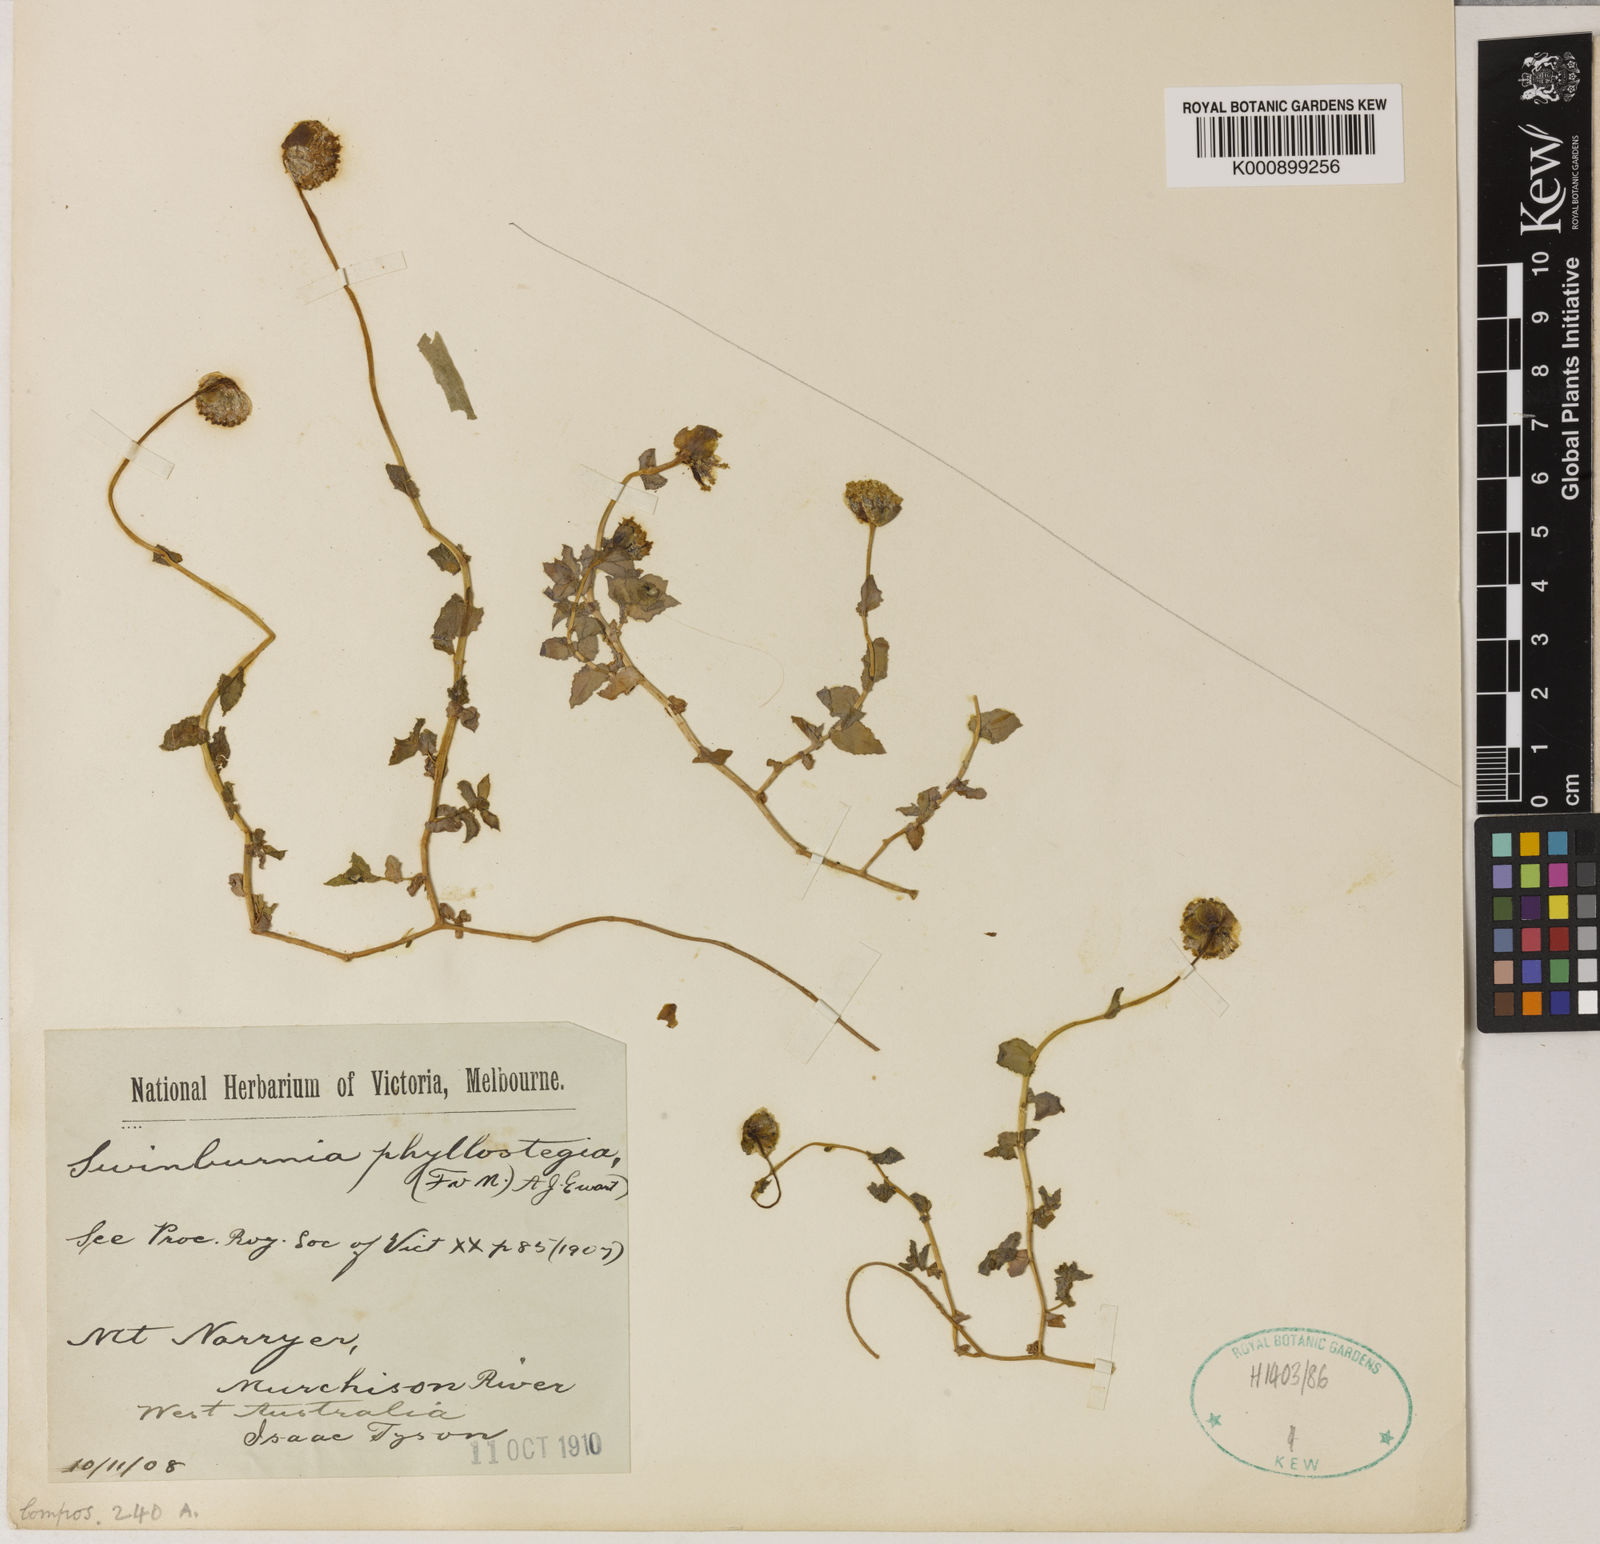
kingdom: Plantae
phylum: Tracheophyta
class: Magnoliopsida
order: Asterales
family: Asteraceae
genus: Neotysonia
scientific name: Neotysonia phyllostegia
